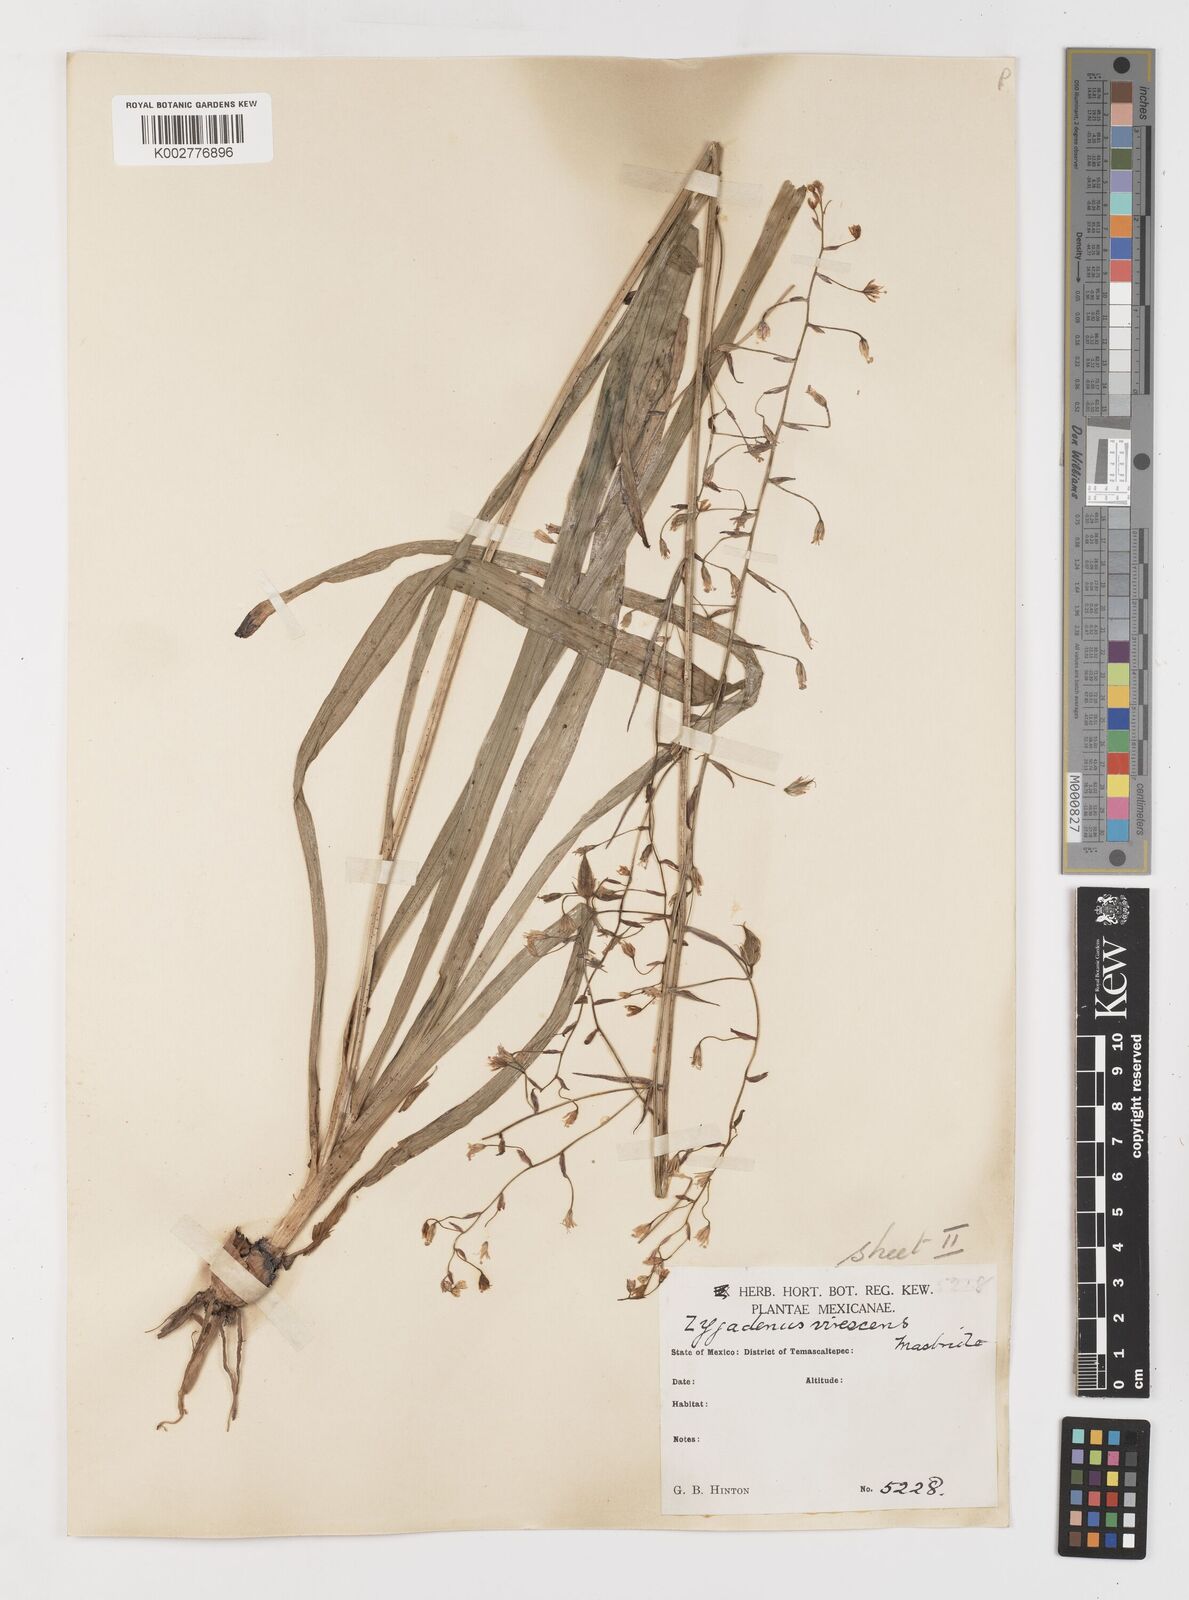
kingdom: Plantae
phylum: Tracheophyta
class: Liliopsida
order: Liliales
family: Melanthiaceae
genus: Anticlea
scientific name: Anticlea virescens
